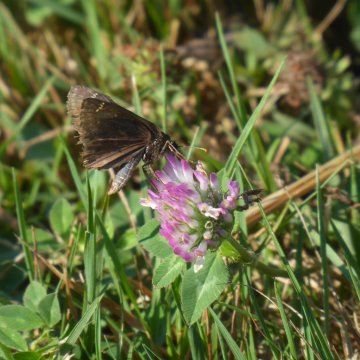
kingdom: Animalia
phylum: Arthropoda
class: Insecta
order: Lepidoptera
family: Hesperiidae
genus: Gesta
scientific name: Gesta
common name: Wild Indigo Duskywing
